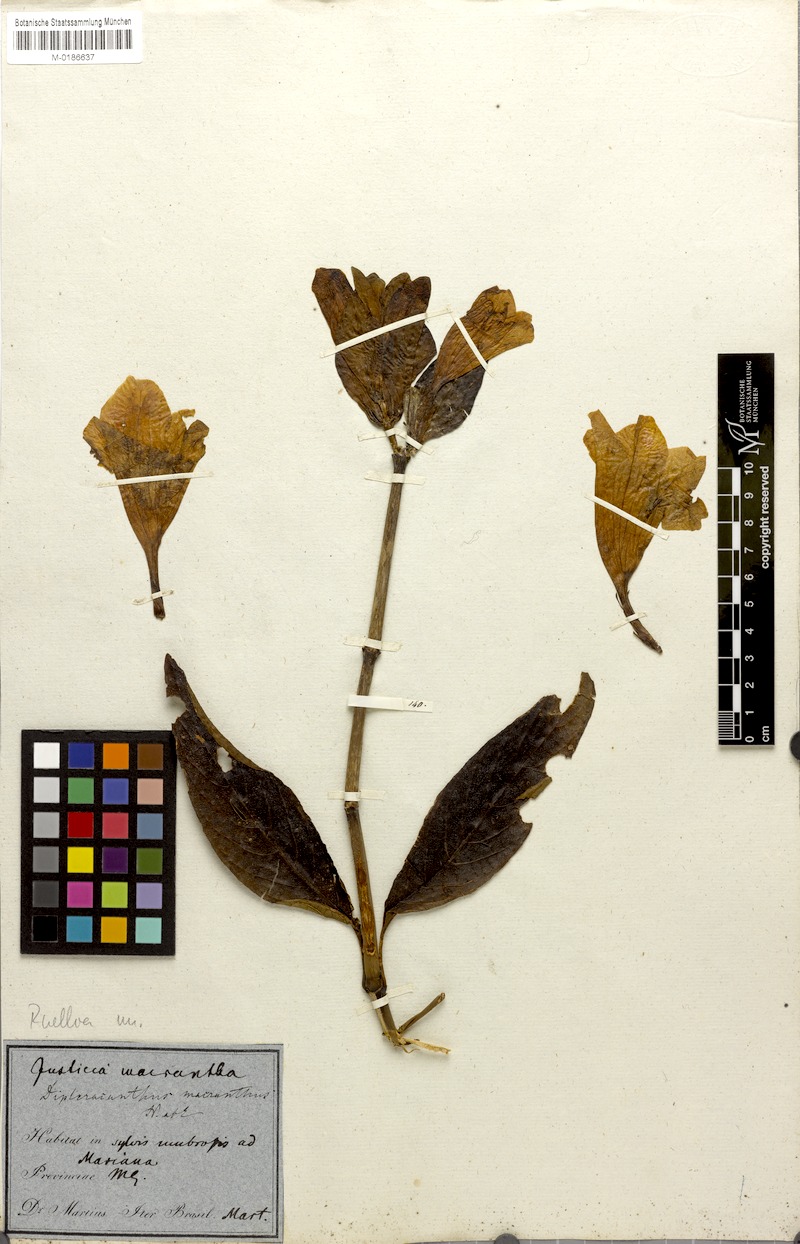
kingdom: Plantae
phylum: Tracheophyta
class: Magnoliopsida
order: Lamiales
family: Acanthaceae
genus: Ruellia
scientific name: Ruellia macrantha
